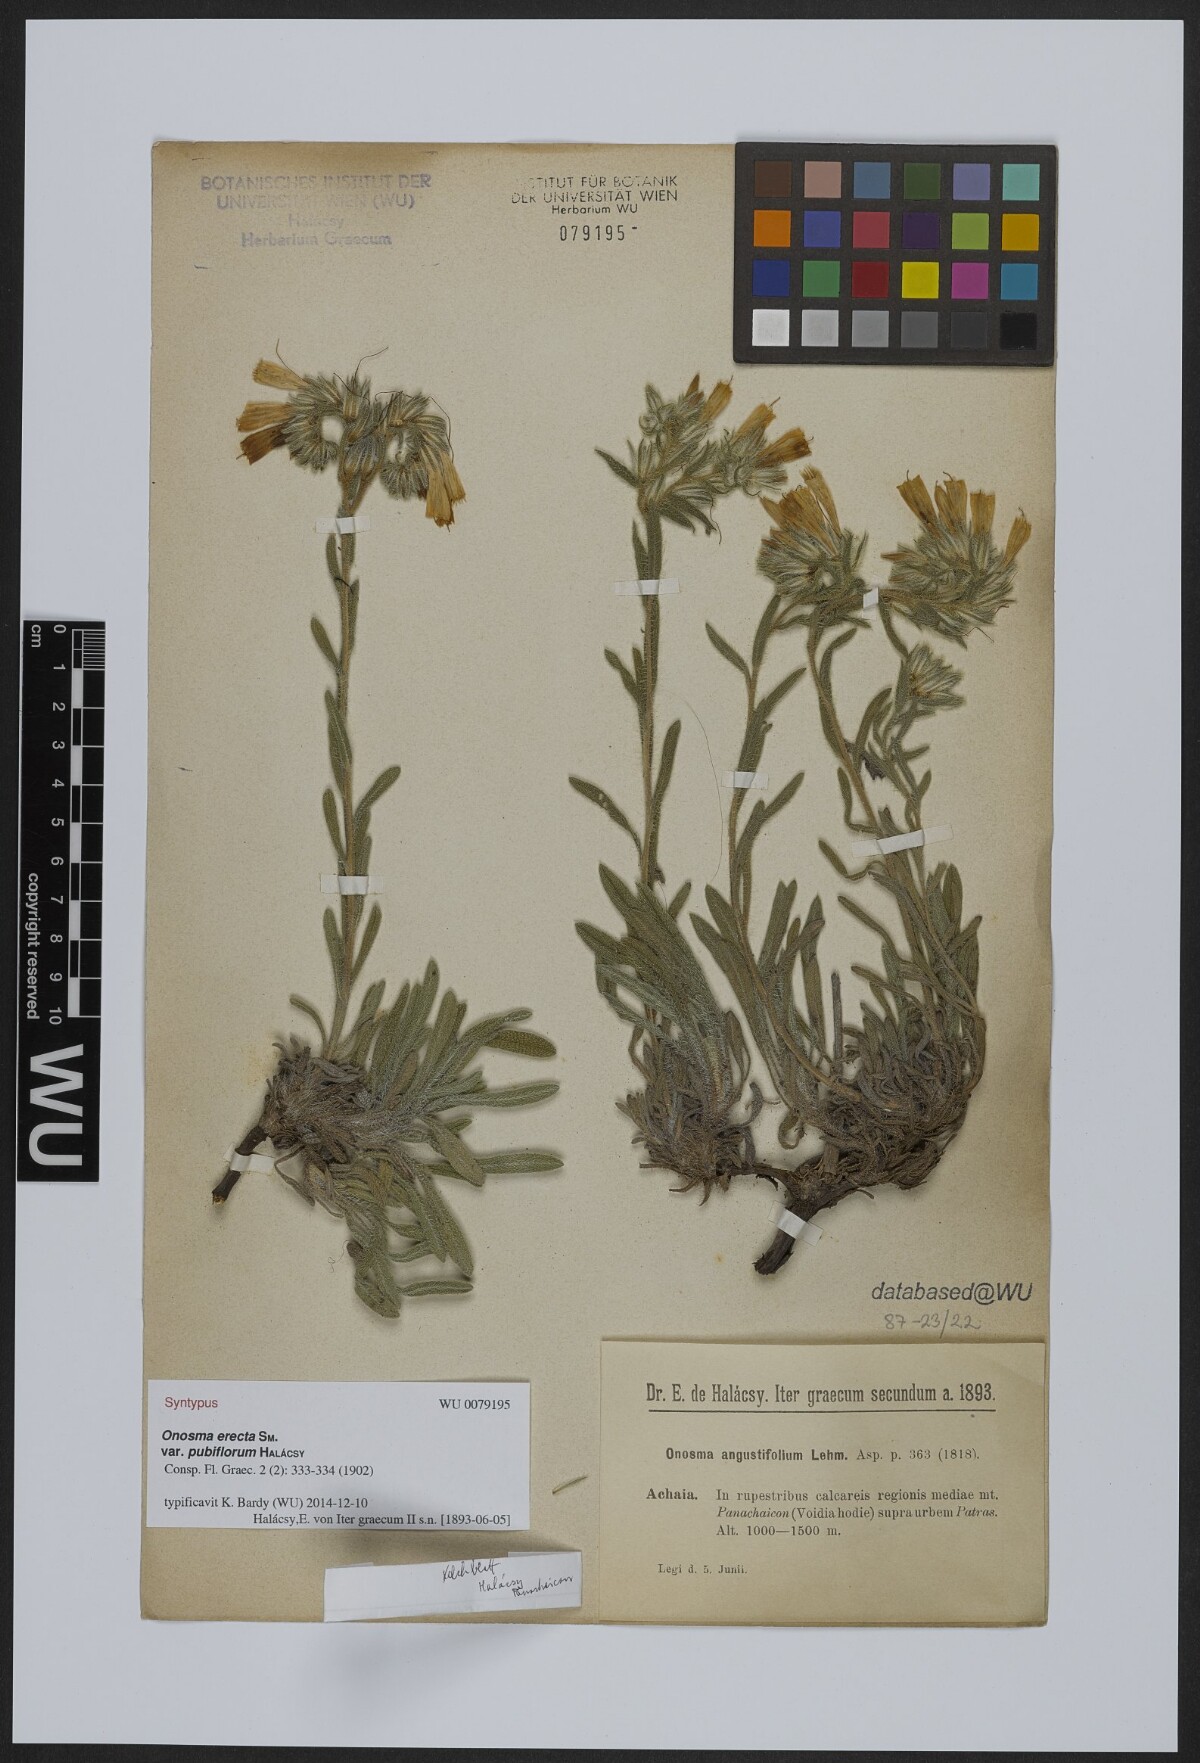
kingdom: Plantae
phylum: Tracheophyta
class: Magnoliopsida
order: Boraginales
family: Boraginaceae
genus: Onosma
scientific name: Onosma kaheirei
